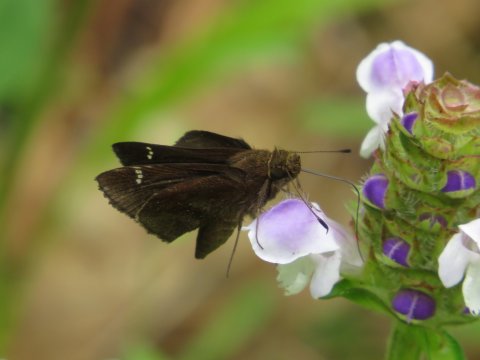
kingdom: Animalia
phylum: Arthropoda
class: Insecta
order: Lepidoptera
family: Hesperiidae
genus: Lerema
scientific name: Lerema accius
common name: Clouded Skipper
